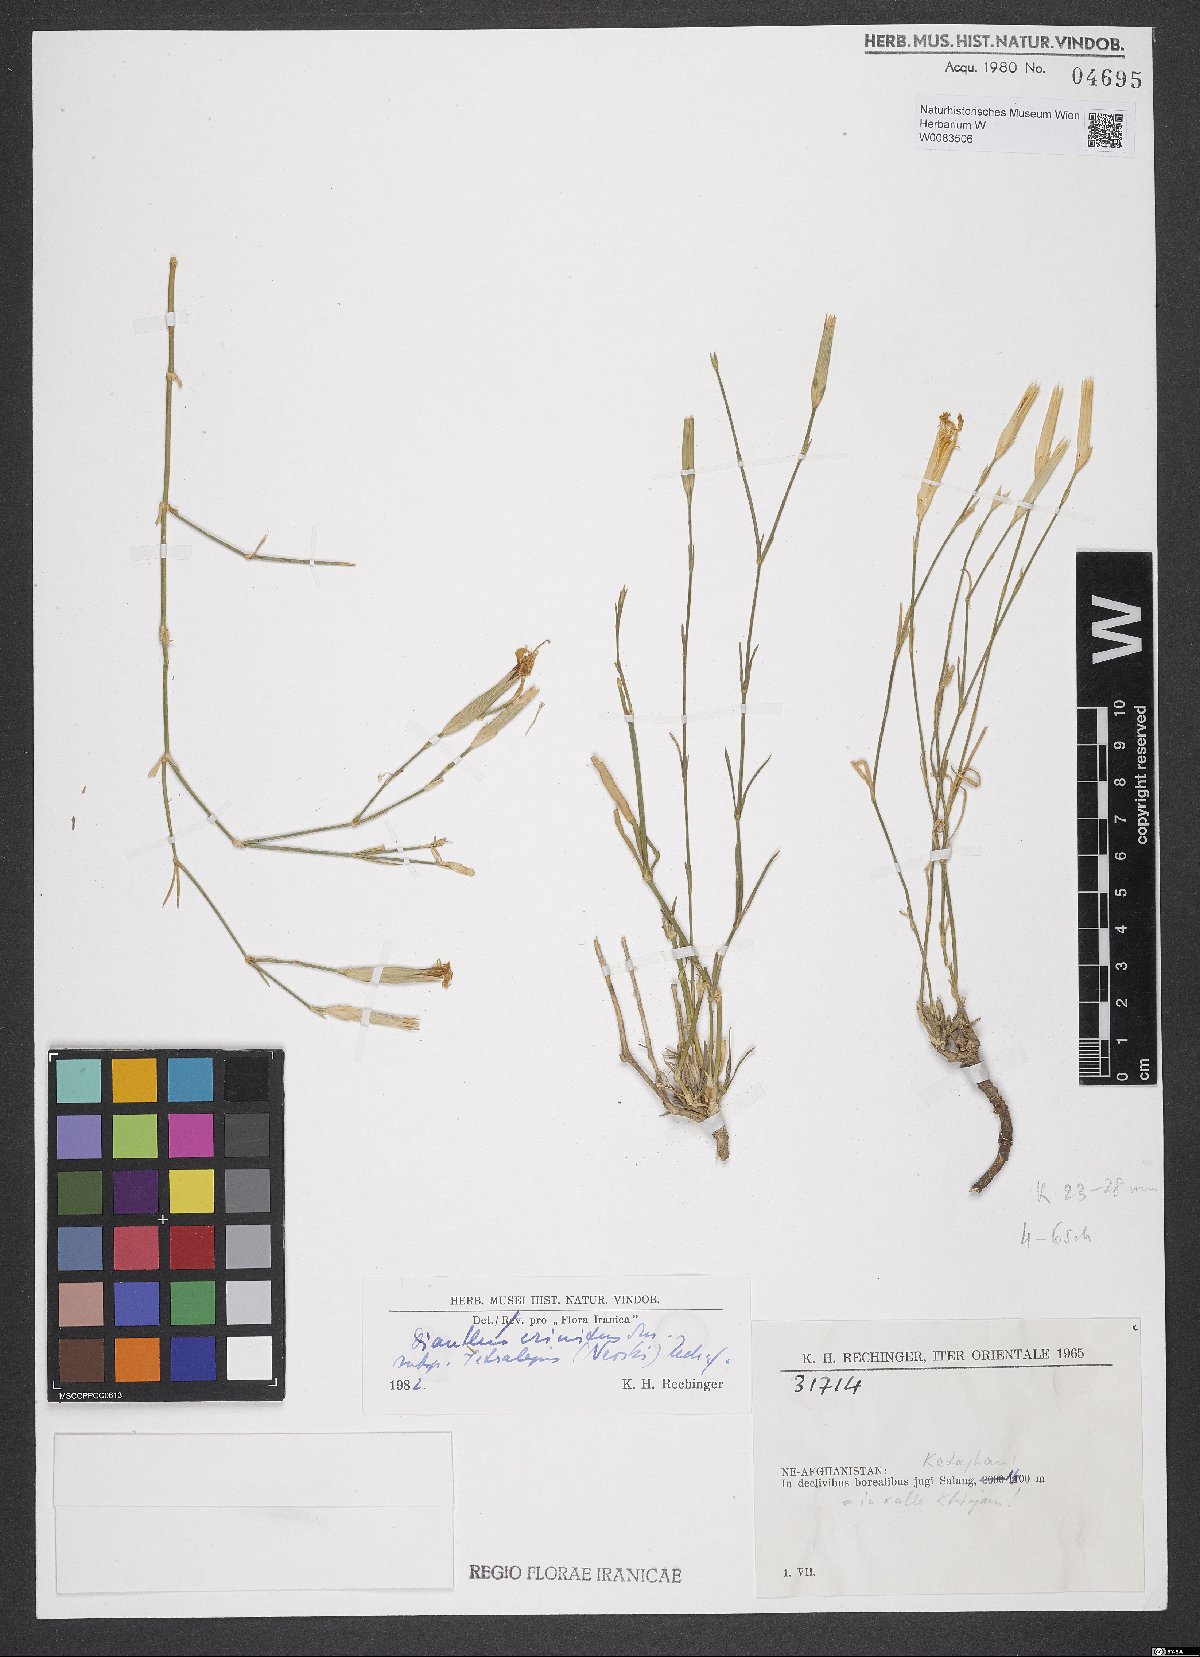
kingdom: Plantae
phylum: Tracheophyta
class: Magnoliopsida
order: Caryophyllales
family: Caryophyllaceae
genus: Dianthus
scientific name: Dianthus crinitus
